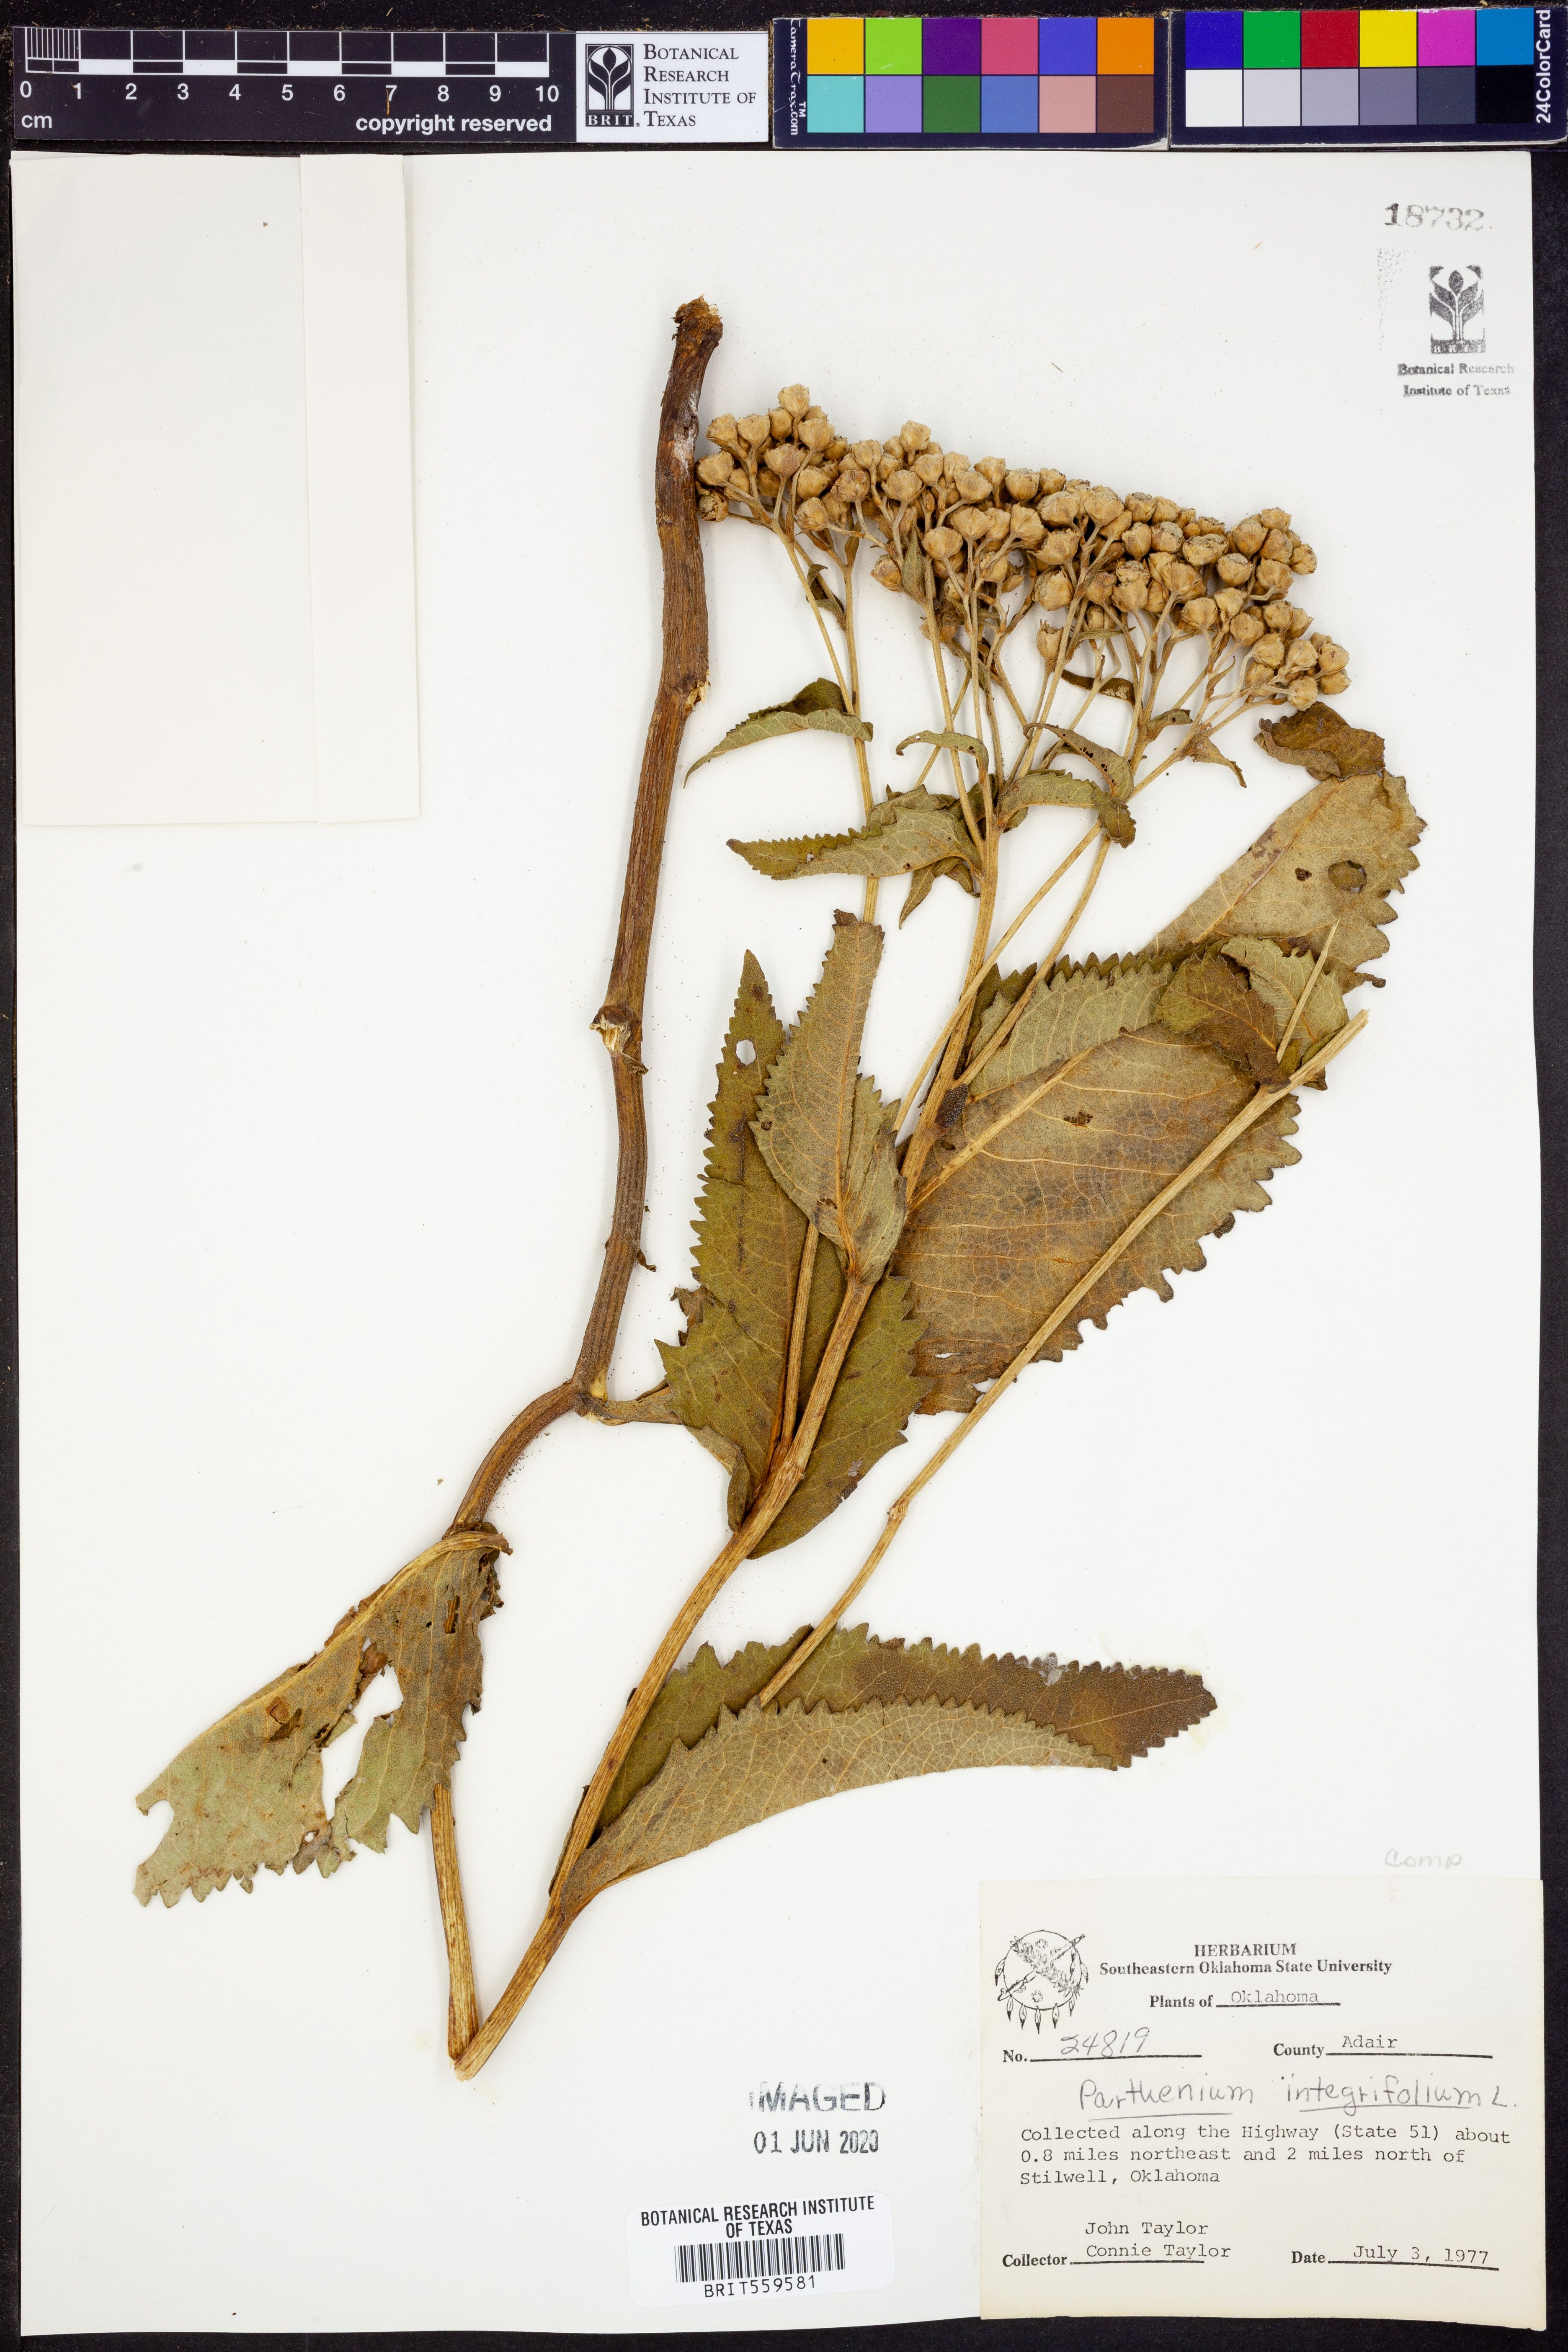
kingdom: Plantae
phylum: Tracheophyta
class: Magnoliopsida
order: Asterales
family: Asteraceae
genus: Parthenium
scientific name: Parthenium integrifolium
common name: American feverfew
